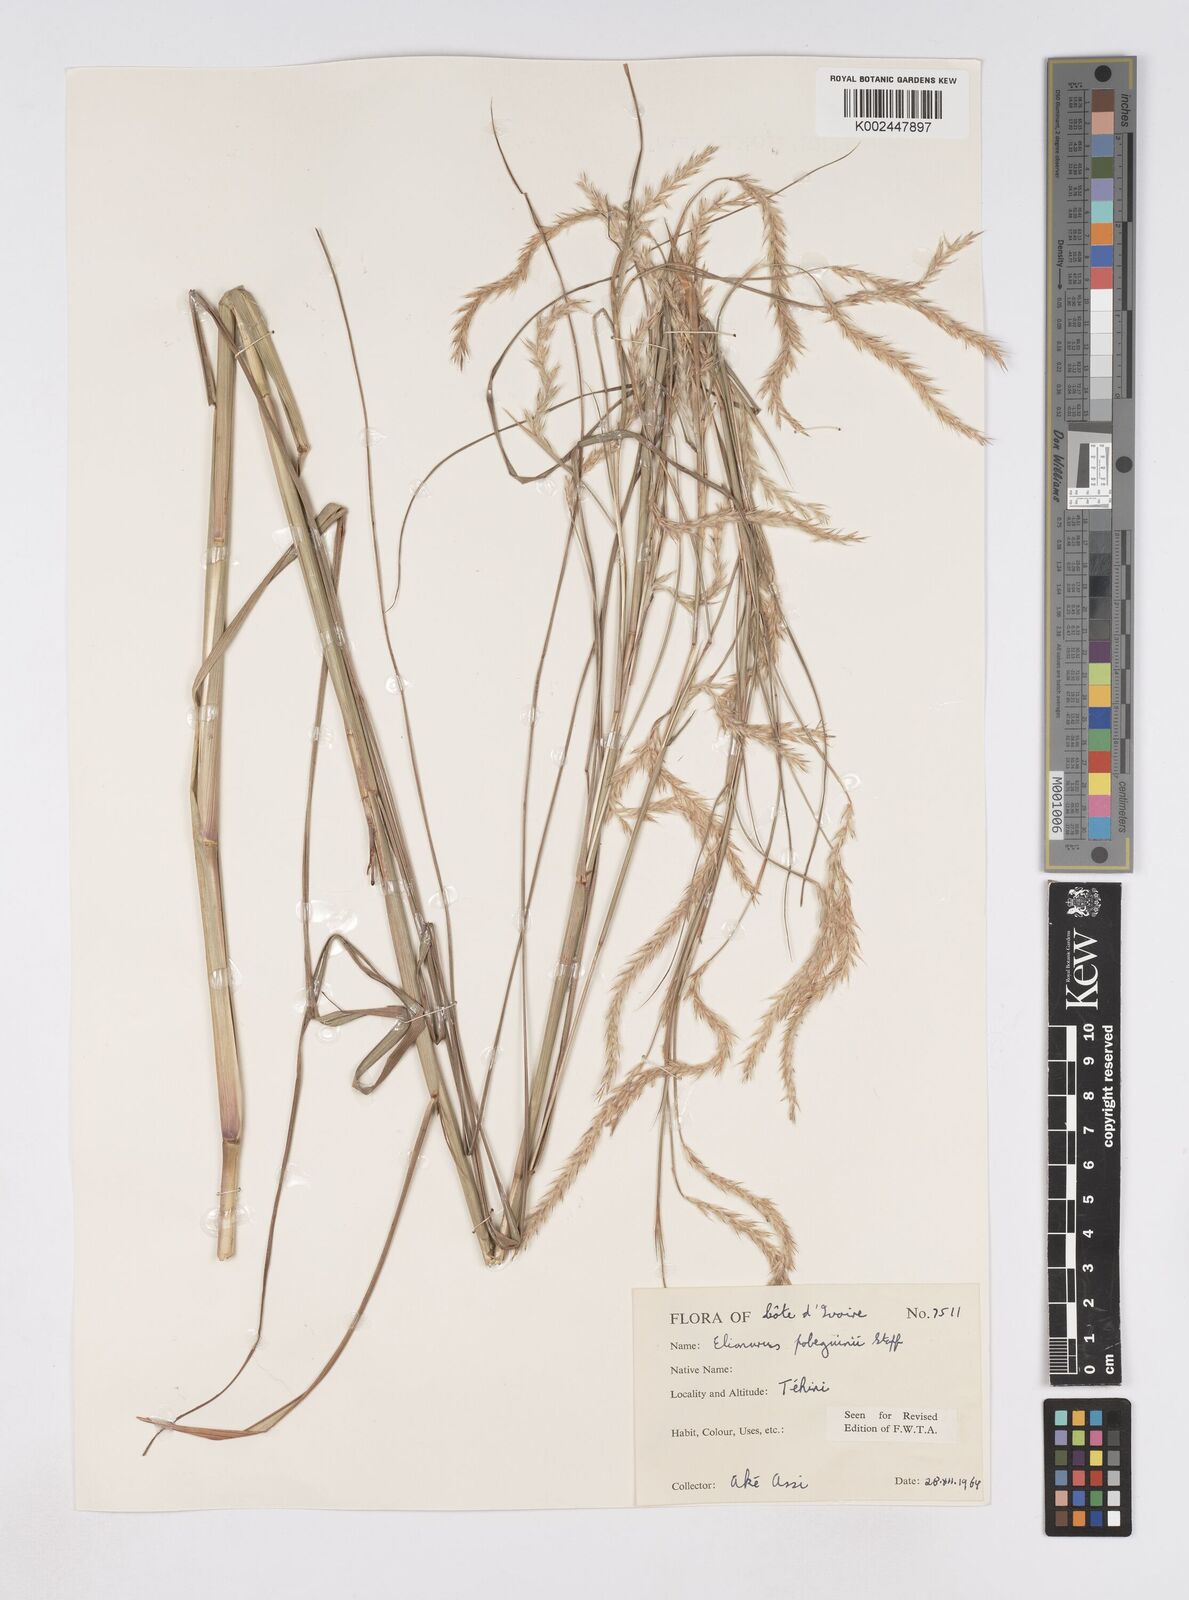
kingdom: Plantae
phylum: Tracheophyta
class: Liliopsida
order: Poales
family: Poaceae
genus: Elionurus
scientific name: Elionurus ciliaris
